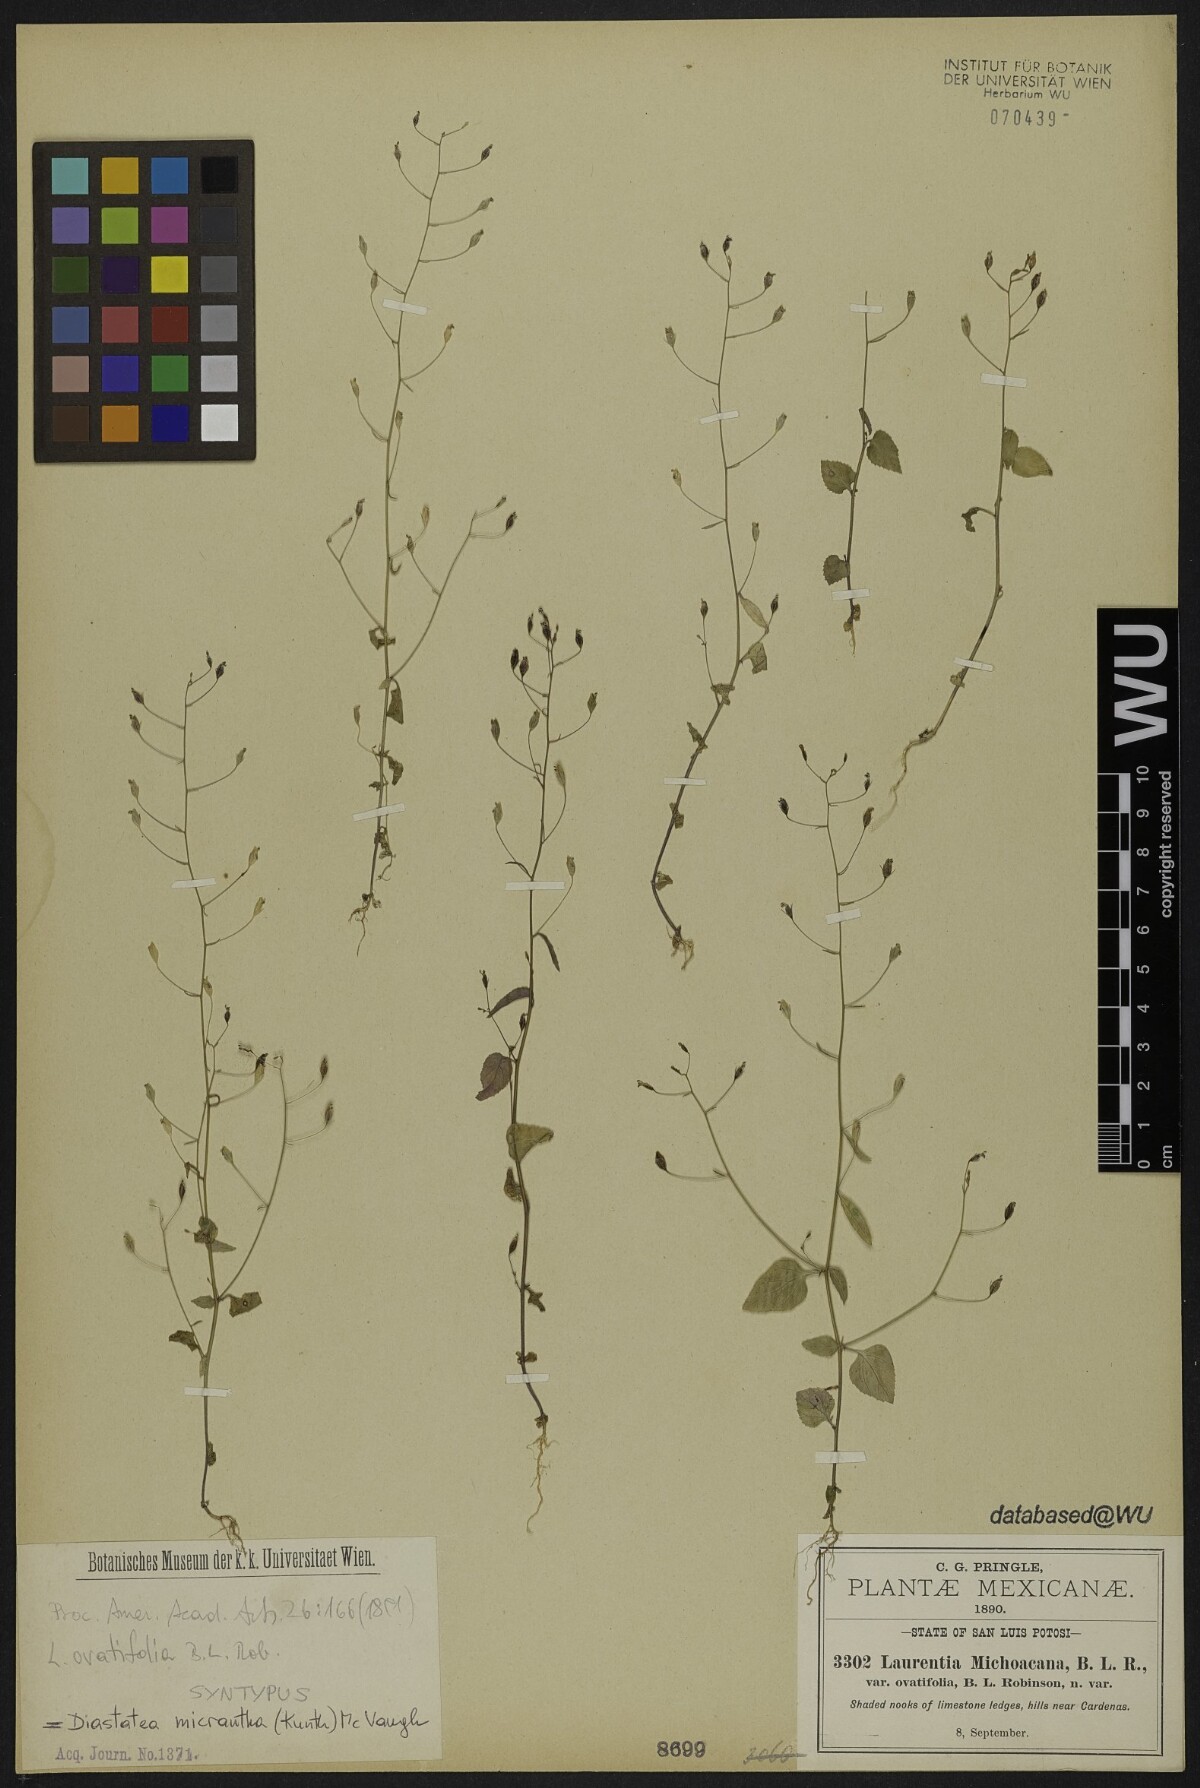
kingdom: Plantae
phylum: Tracheophyta
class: Magnoliopsida
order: Asterales
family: Campanulaceae
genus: Diastatea
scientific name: Diastatea micrantha
